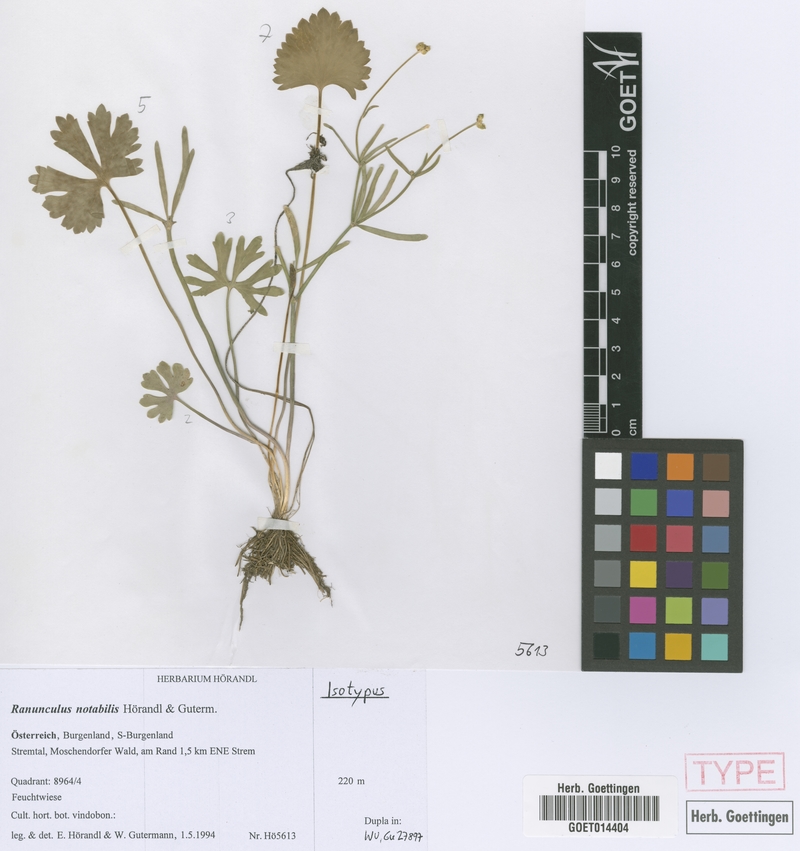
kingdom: Plantae
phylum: Tracheophyta
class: Magnoliopsida
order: Ranunculales
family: Ranunculaceae
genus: Ranunculus
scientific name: Ranunculus notabilis
